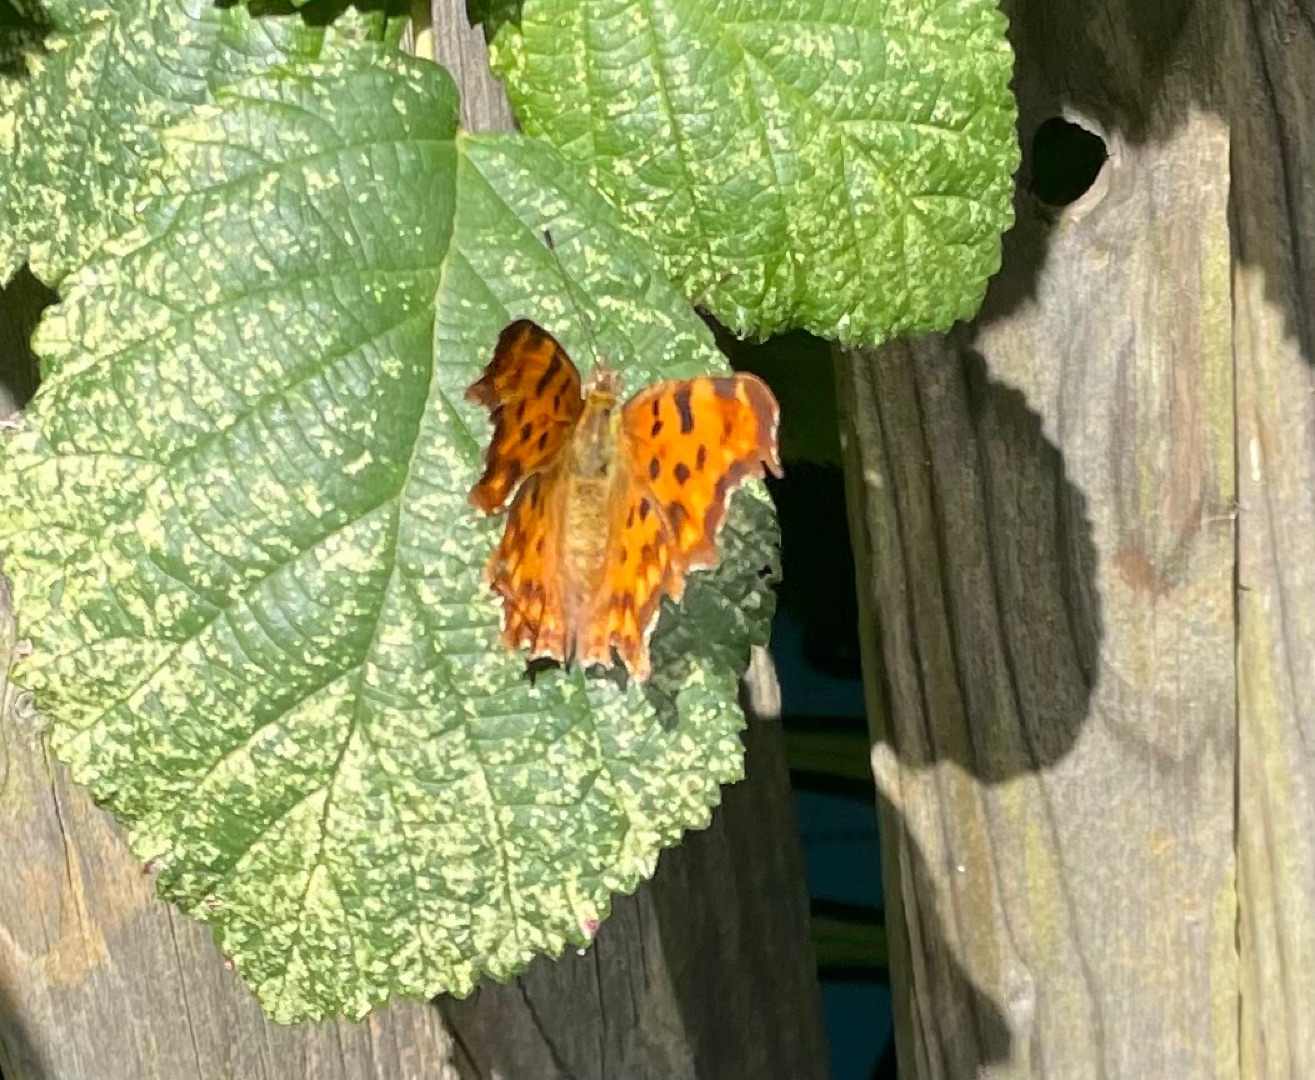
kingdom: Animalia
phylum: Arthropoda
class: Insecta
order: Lepidoptera
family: Nymphalidae
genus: Polygonia
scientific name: Polygonia c-album
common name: Det hvide C
